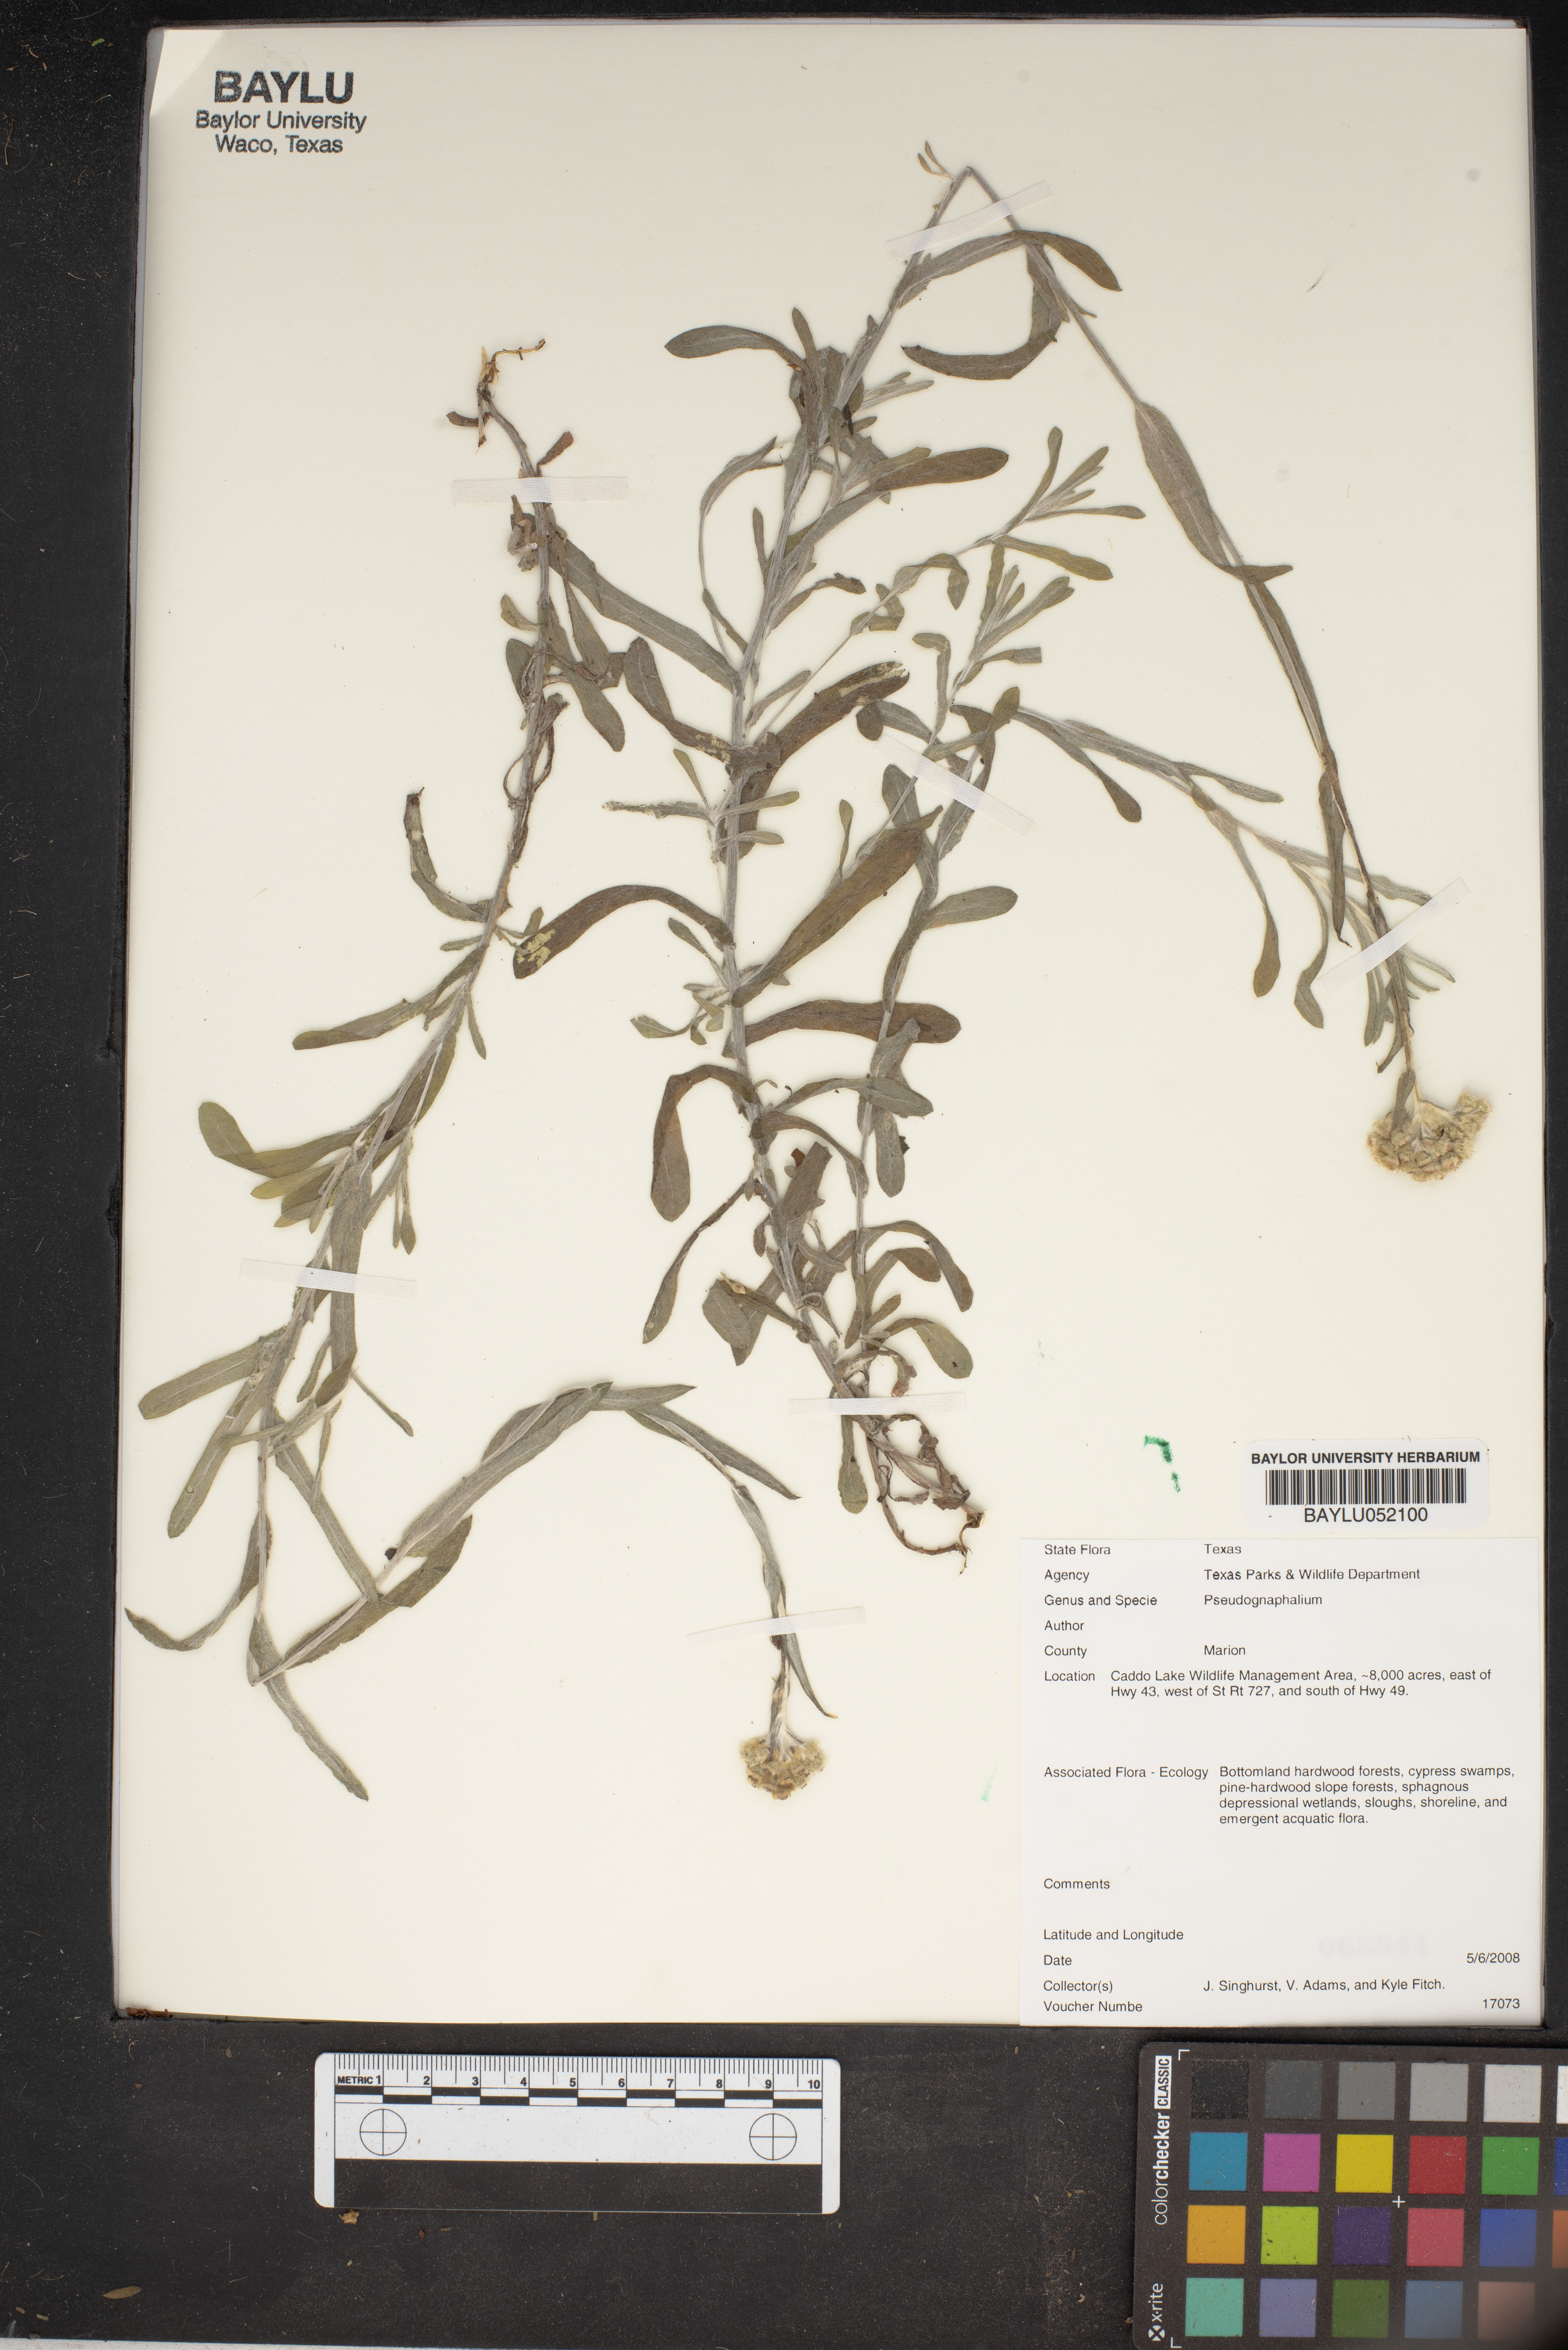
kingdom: Plantae
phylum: Tracheophyta
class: Magnoliopsida
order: Asterales
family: Asteraceae
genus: Pseudognaphalium
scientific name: Pseudognaphalium
